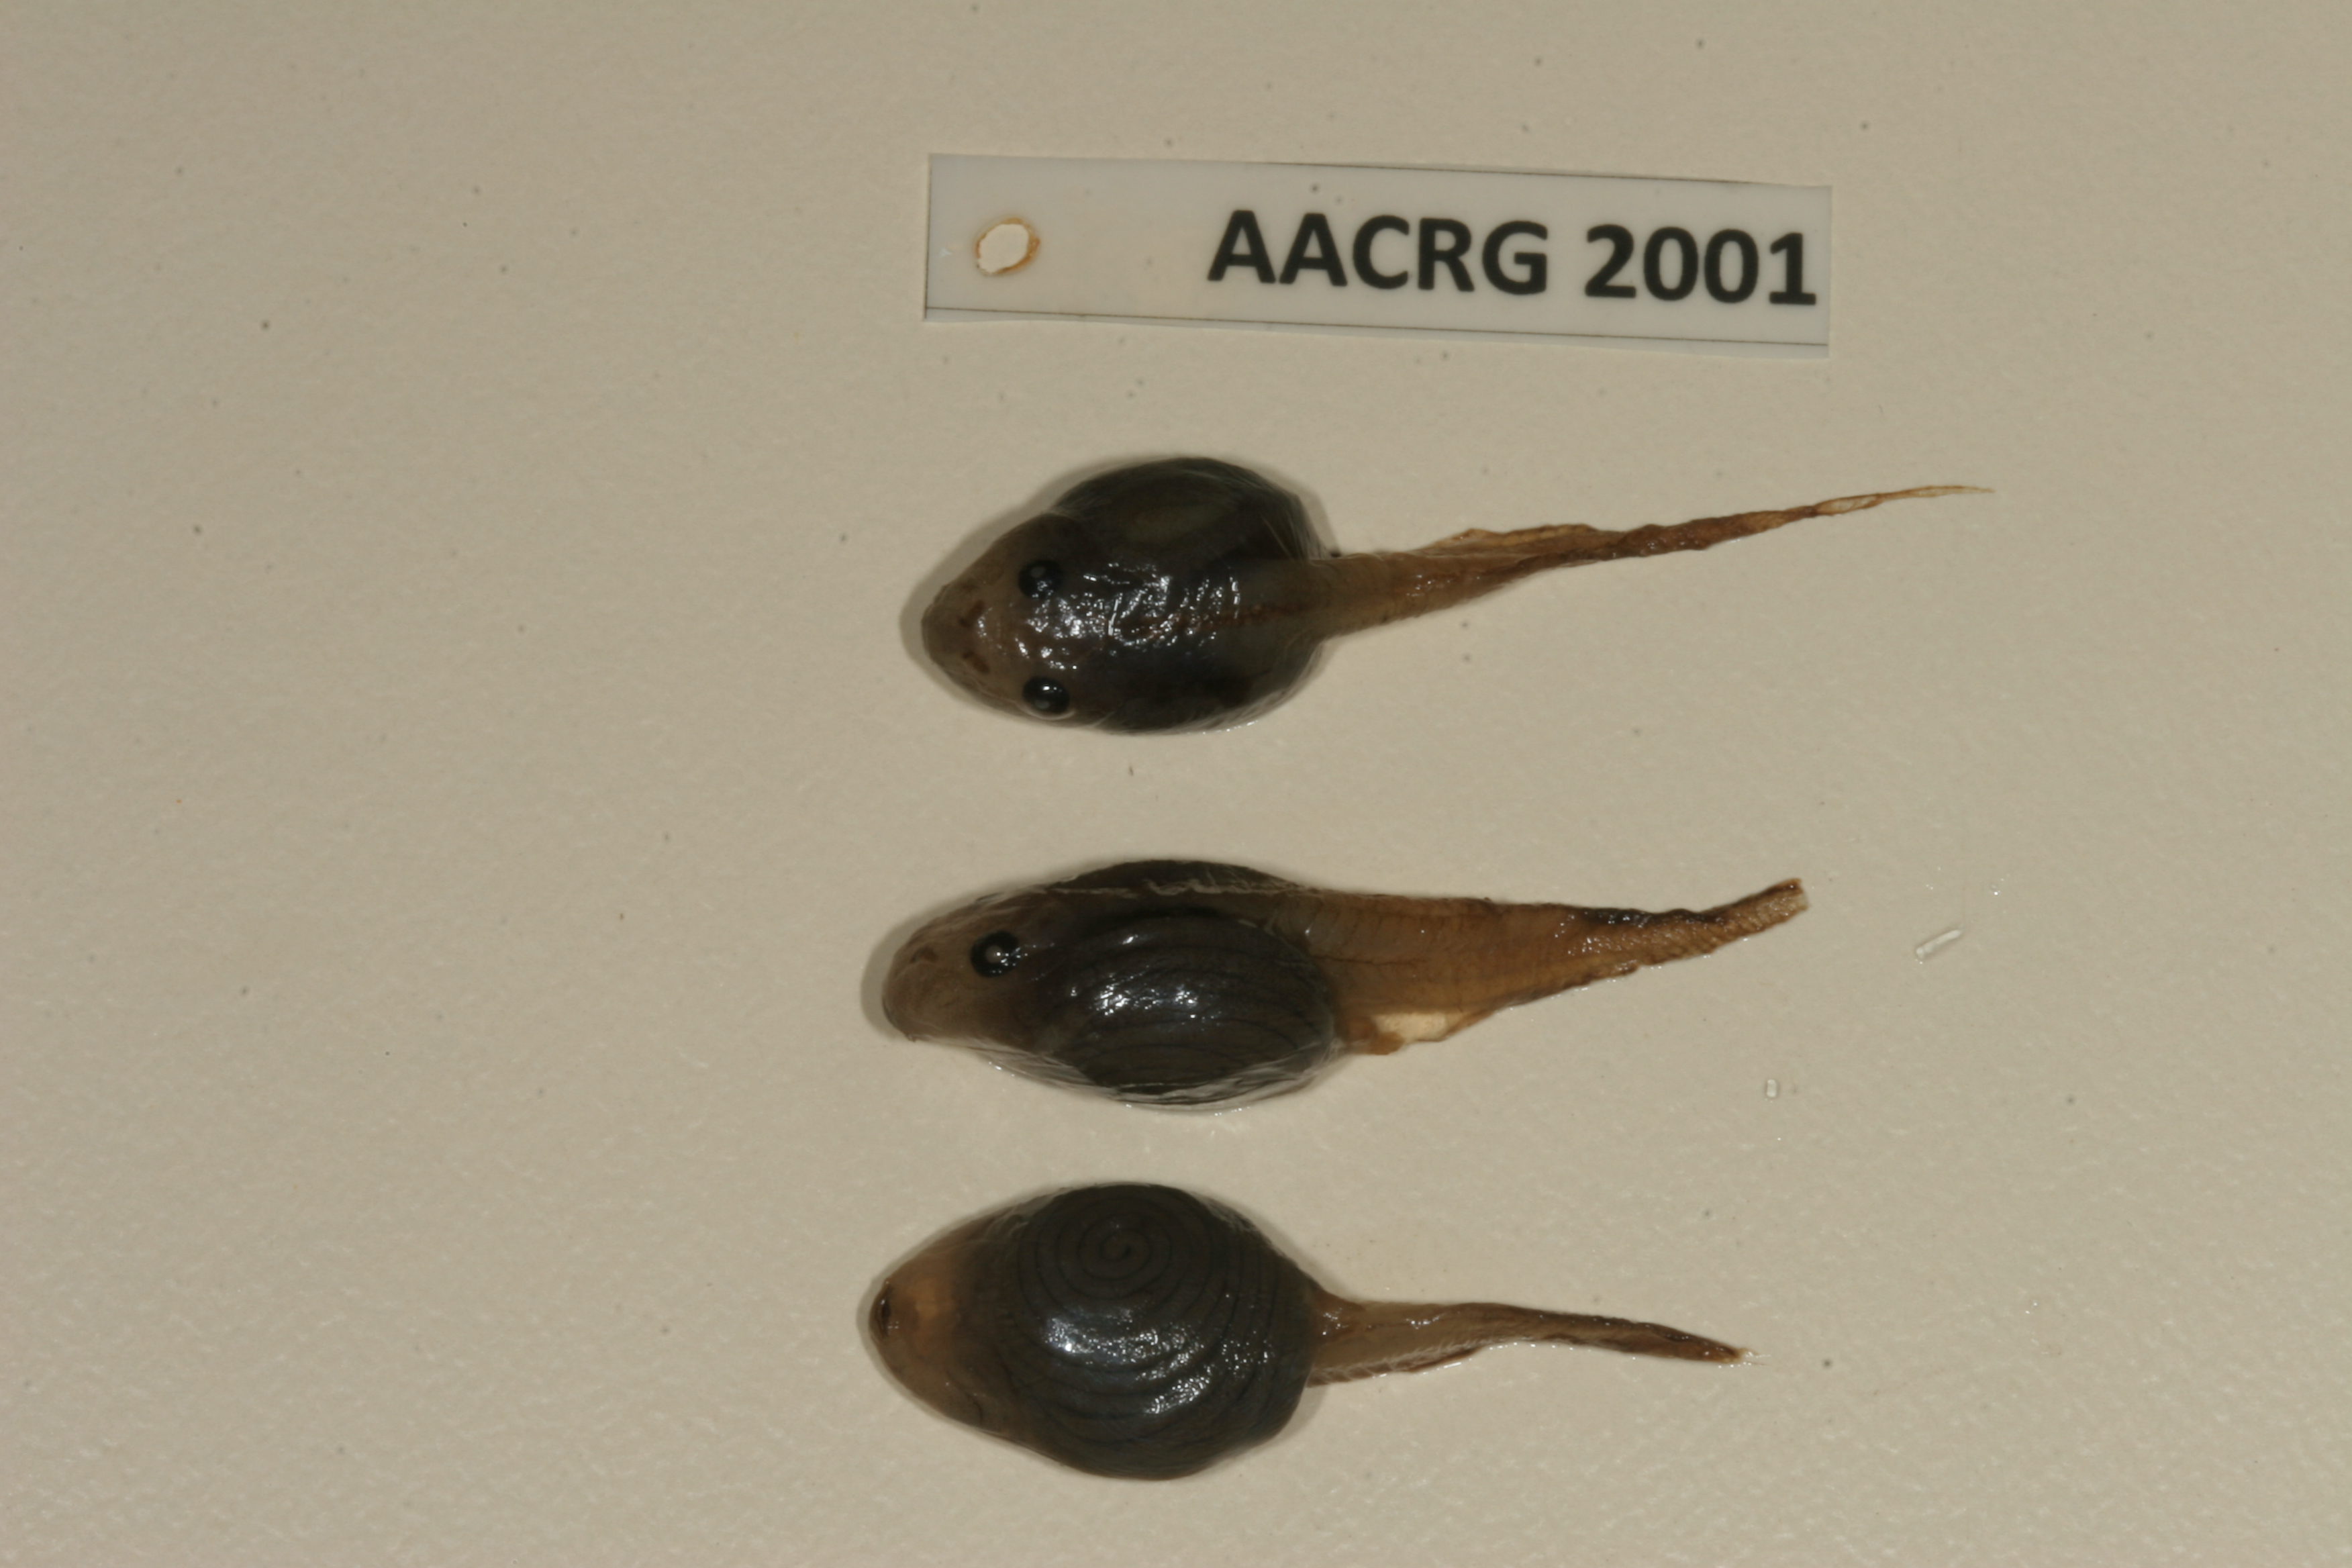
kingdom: Animalia
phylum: Chordata
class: Amphibia
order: Anura
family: Bufonidae
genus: Sclerophrys
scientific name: Sclerophrys garmani
